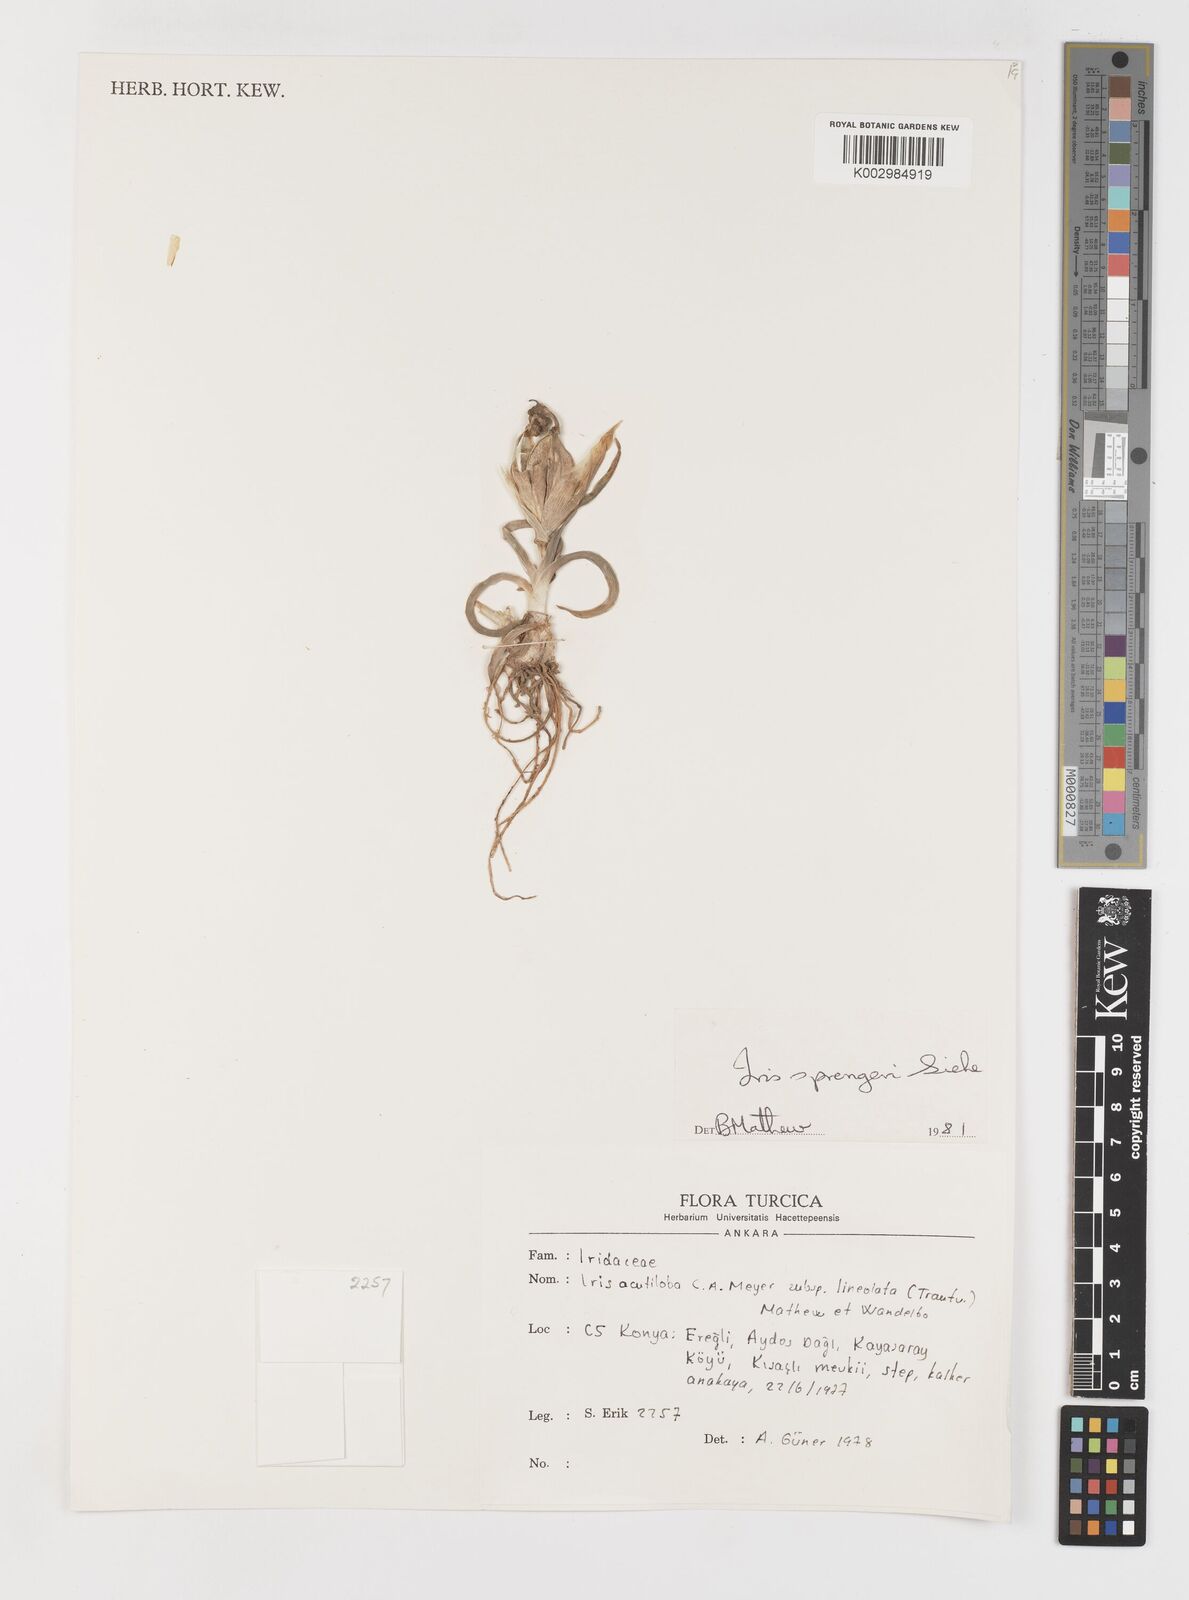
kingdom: Plantae
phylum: Tracheophyta
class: Liliopsida
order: Asparagales
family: Iridaceae
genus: Iris
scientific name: Iris sprengeri
